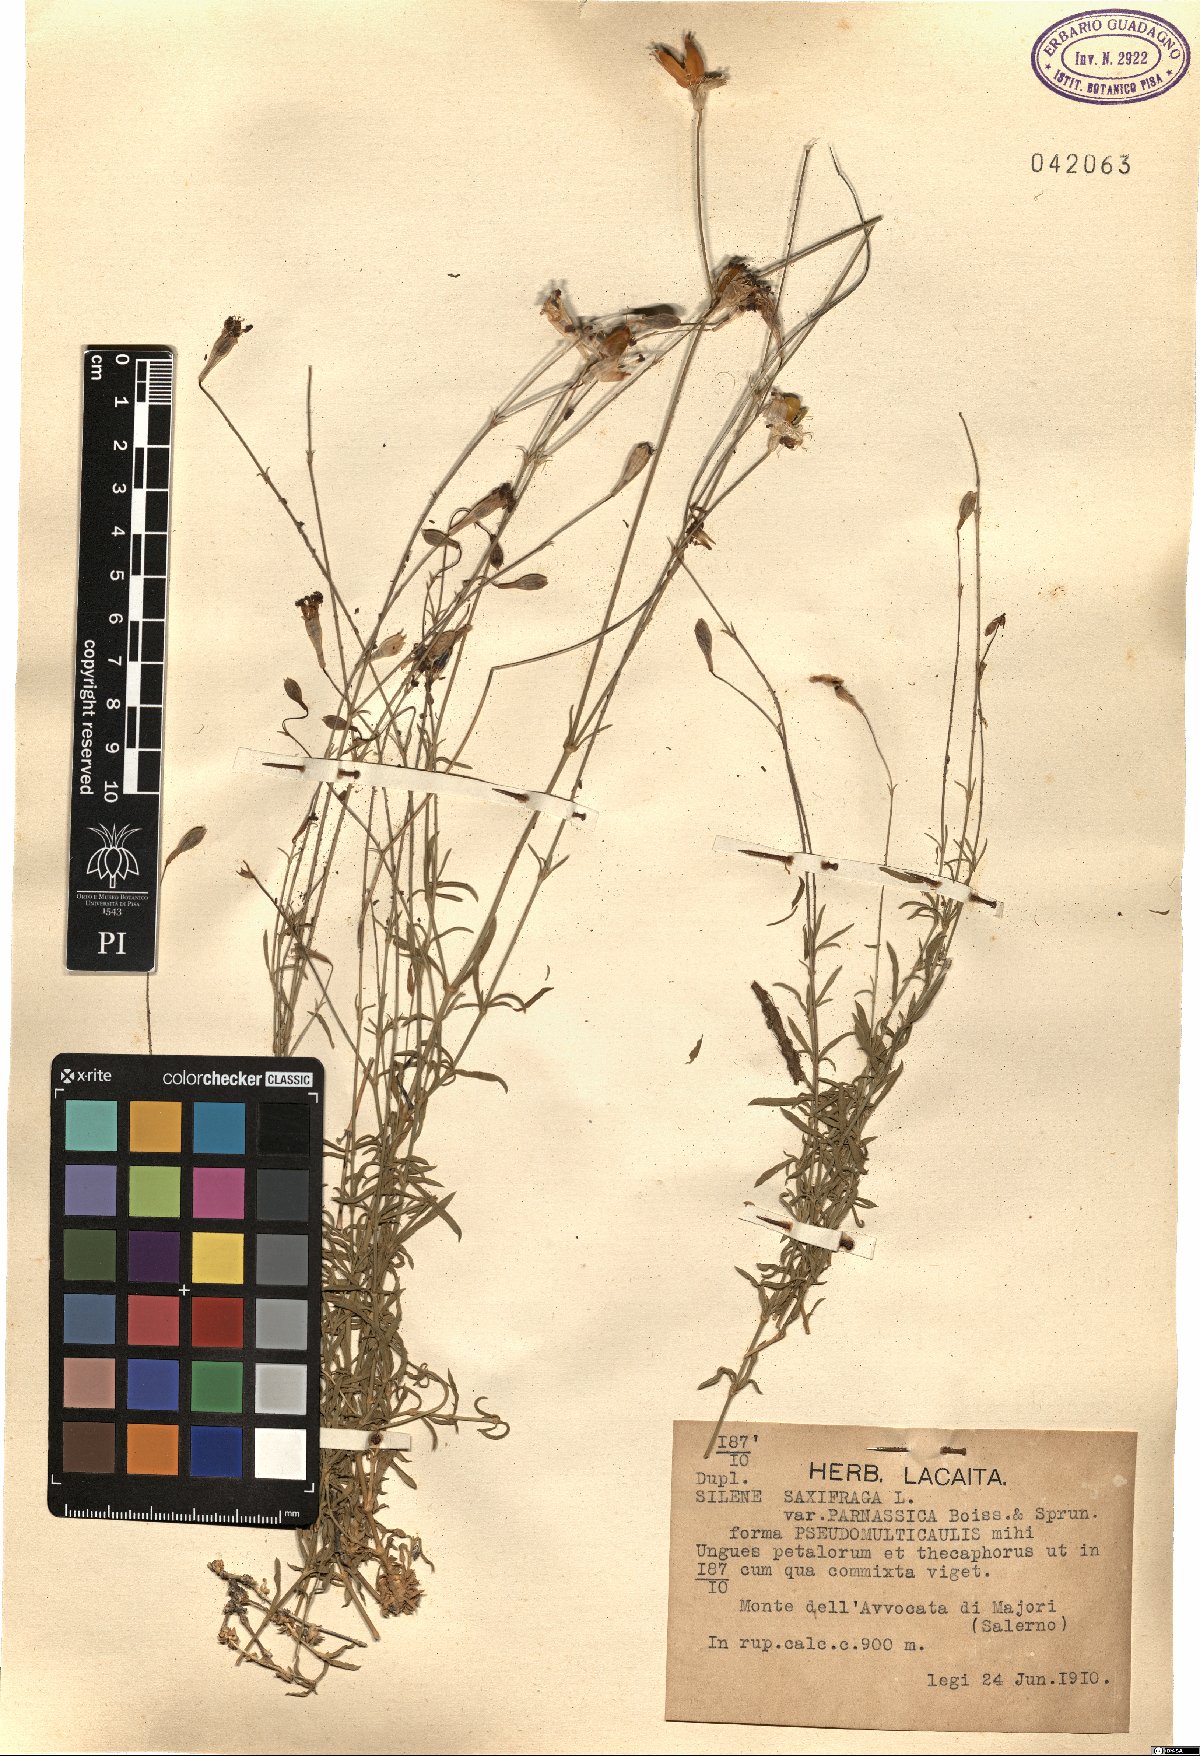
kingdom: Plantae
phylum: Tracheophyta
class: Magnoliopsida
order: Caryophyllales
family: Caryophyllaceae
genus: Silene
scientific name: Silene saxifraga
